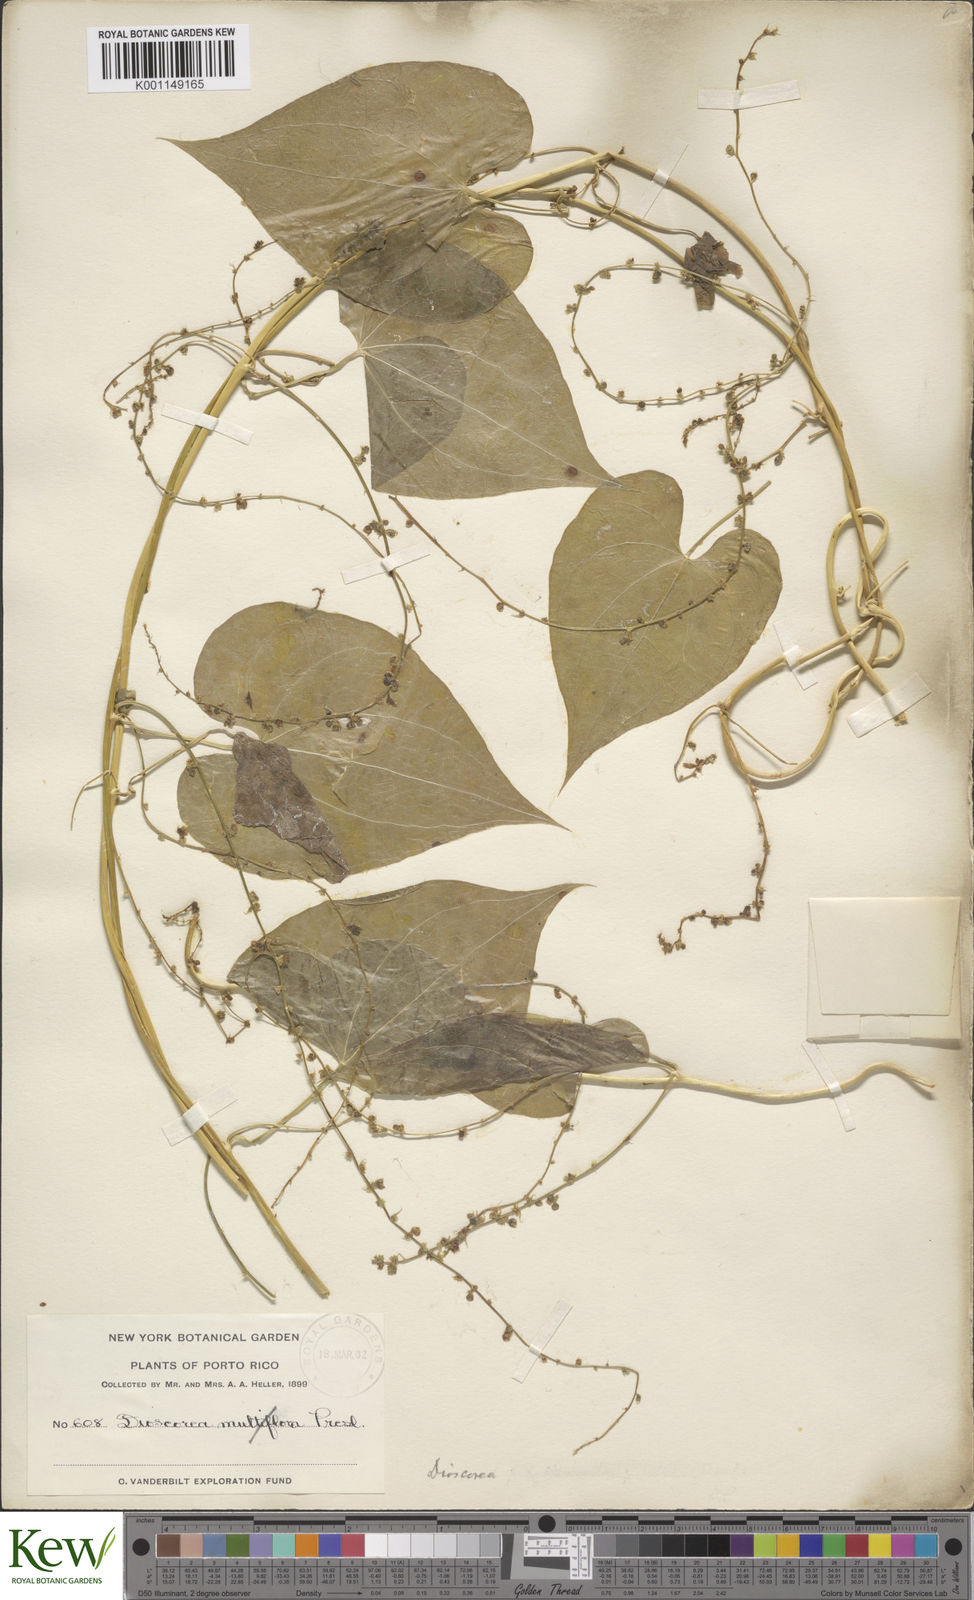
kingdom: Plantae
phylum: Tracheophyta
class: Liliopsida
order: Dioscoreales
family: Dioscoreaceae
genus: Dioscorea
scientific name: Dioscorea polygonoides
